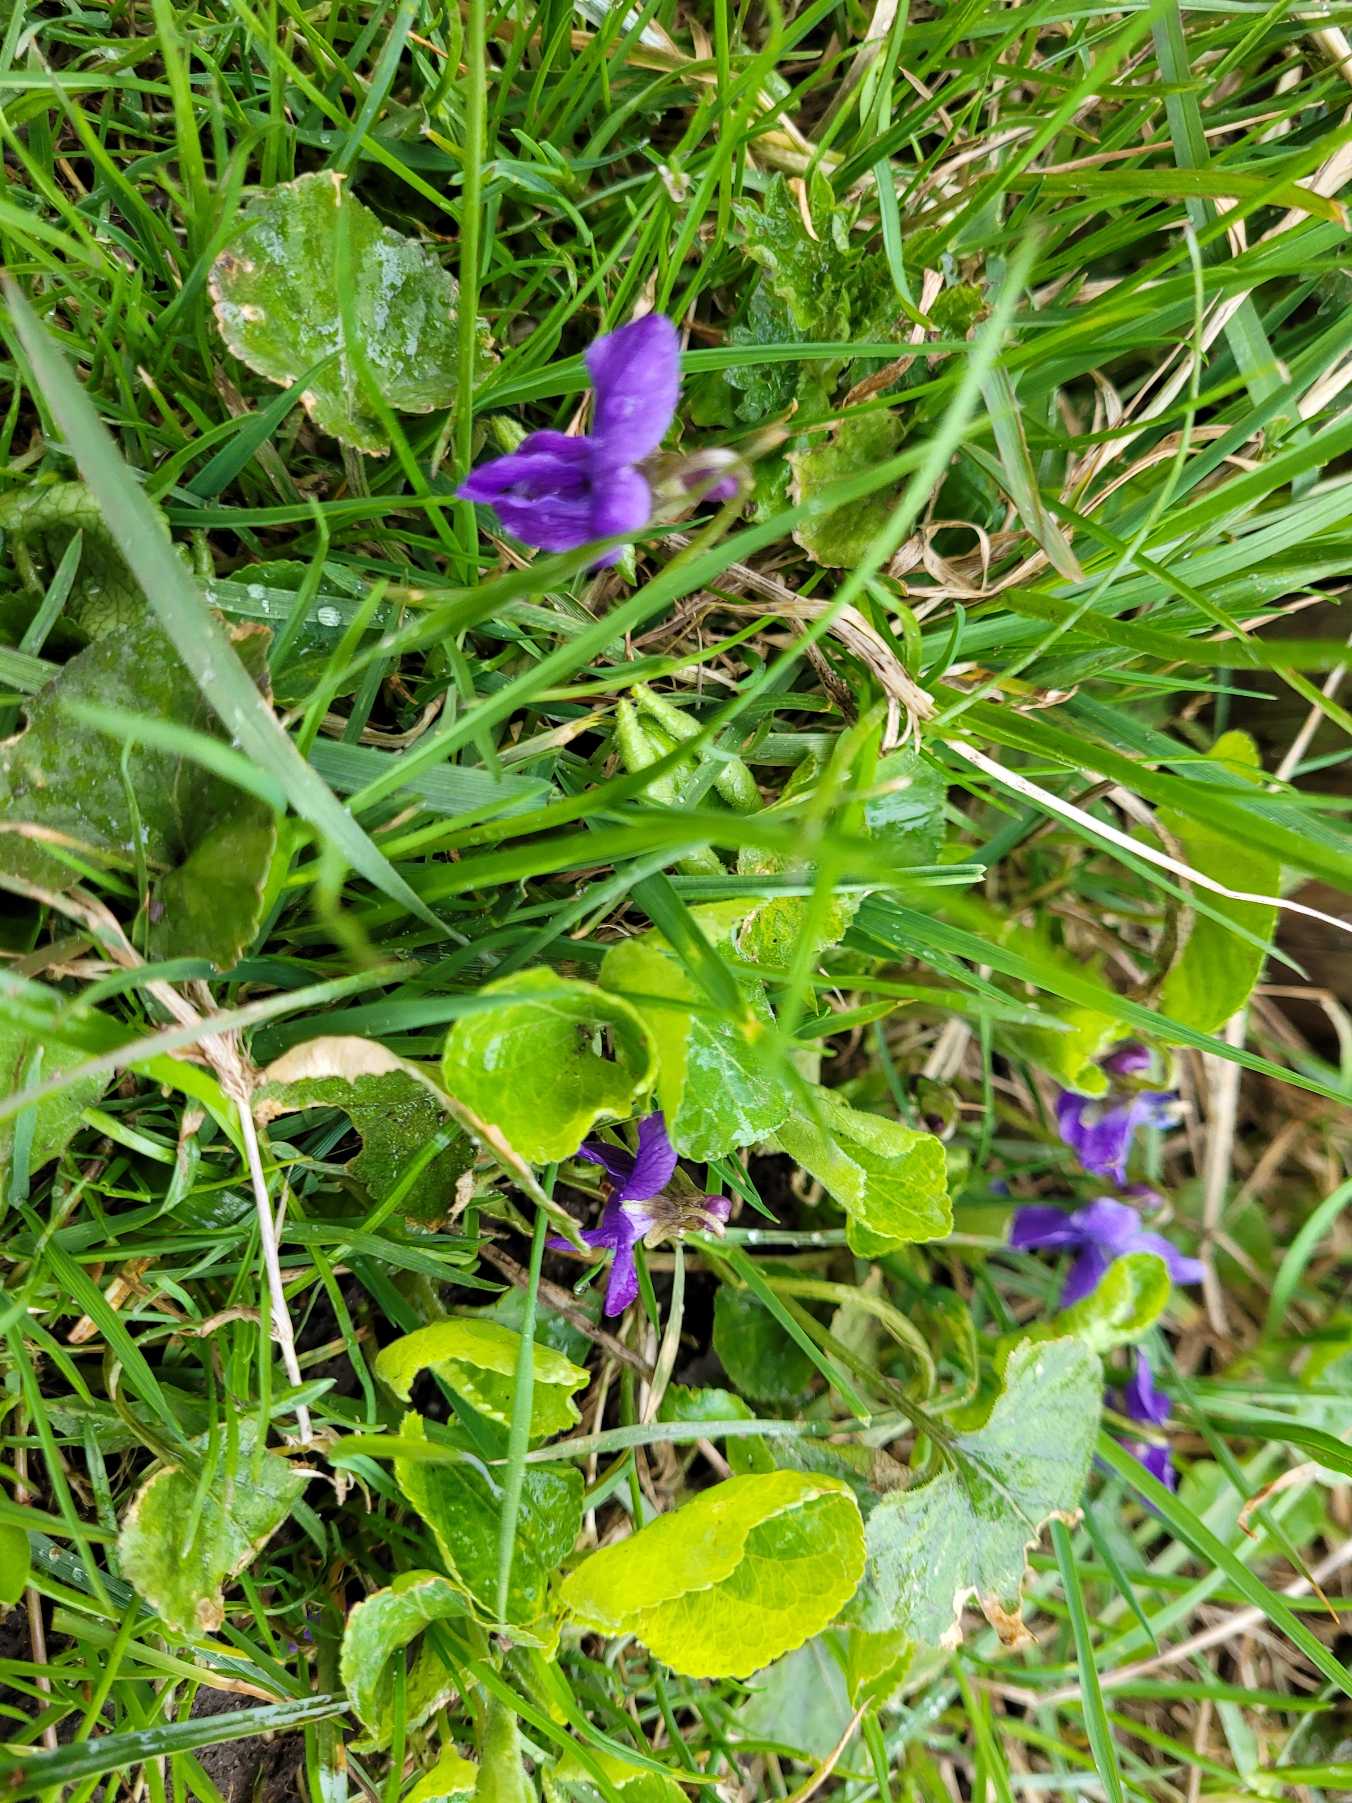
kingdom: Plantae
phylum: Tracheophyta
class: Magnoliopsida
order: Malpighiales
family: Violaceae
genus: Viola
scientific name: Viola odorata
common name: Marts-viol
